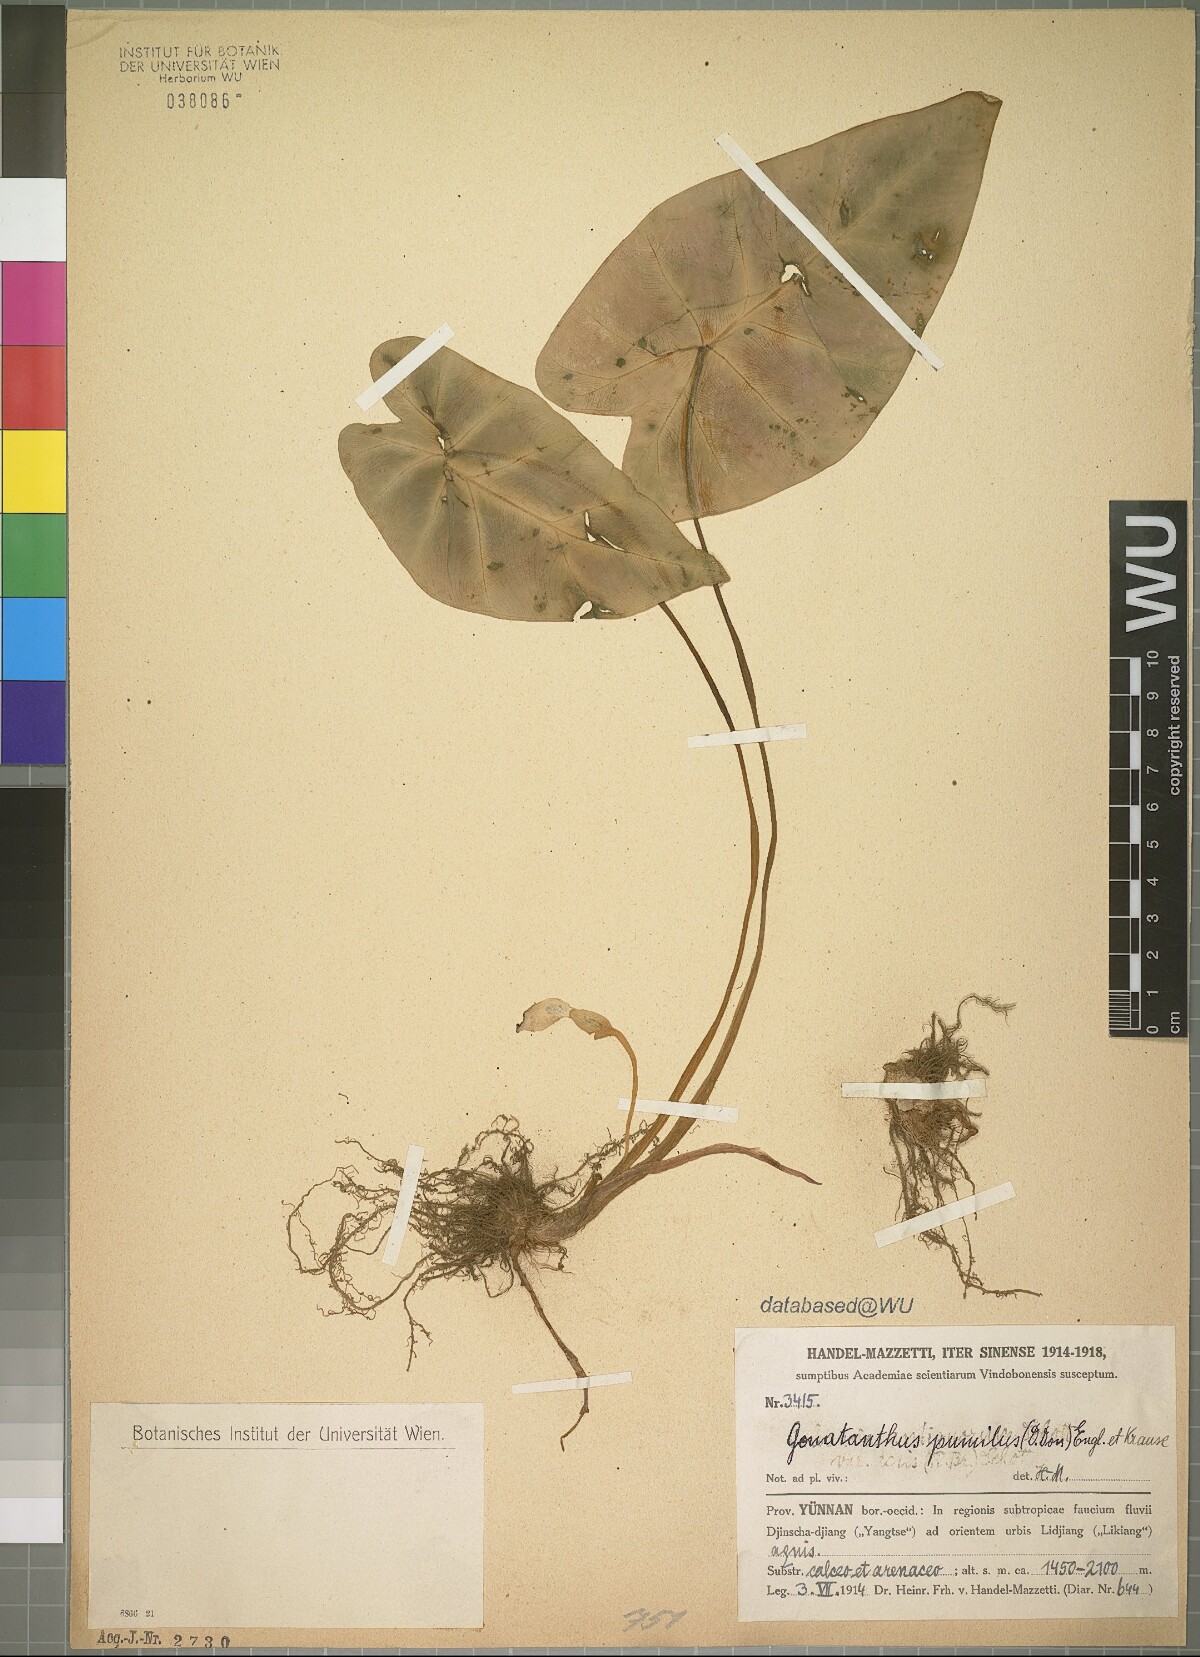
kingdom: Plantae
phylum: Tracheophyta
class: Liliopsida
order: Alismatales
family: Araceae
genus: Remusatia
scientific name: Remusatia pumila
